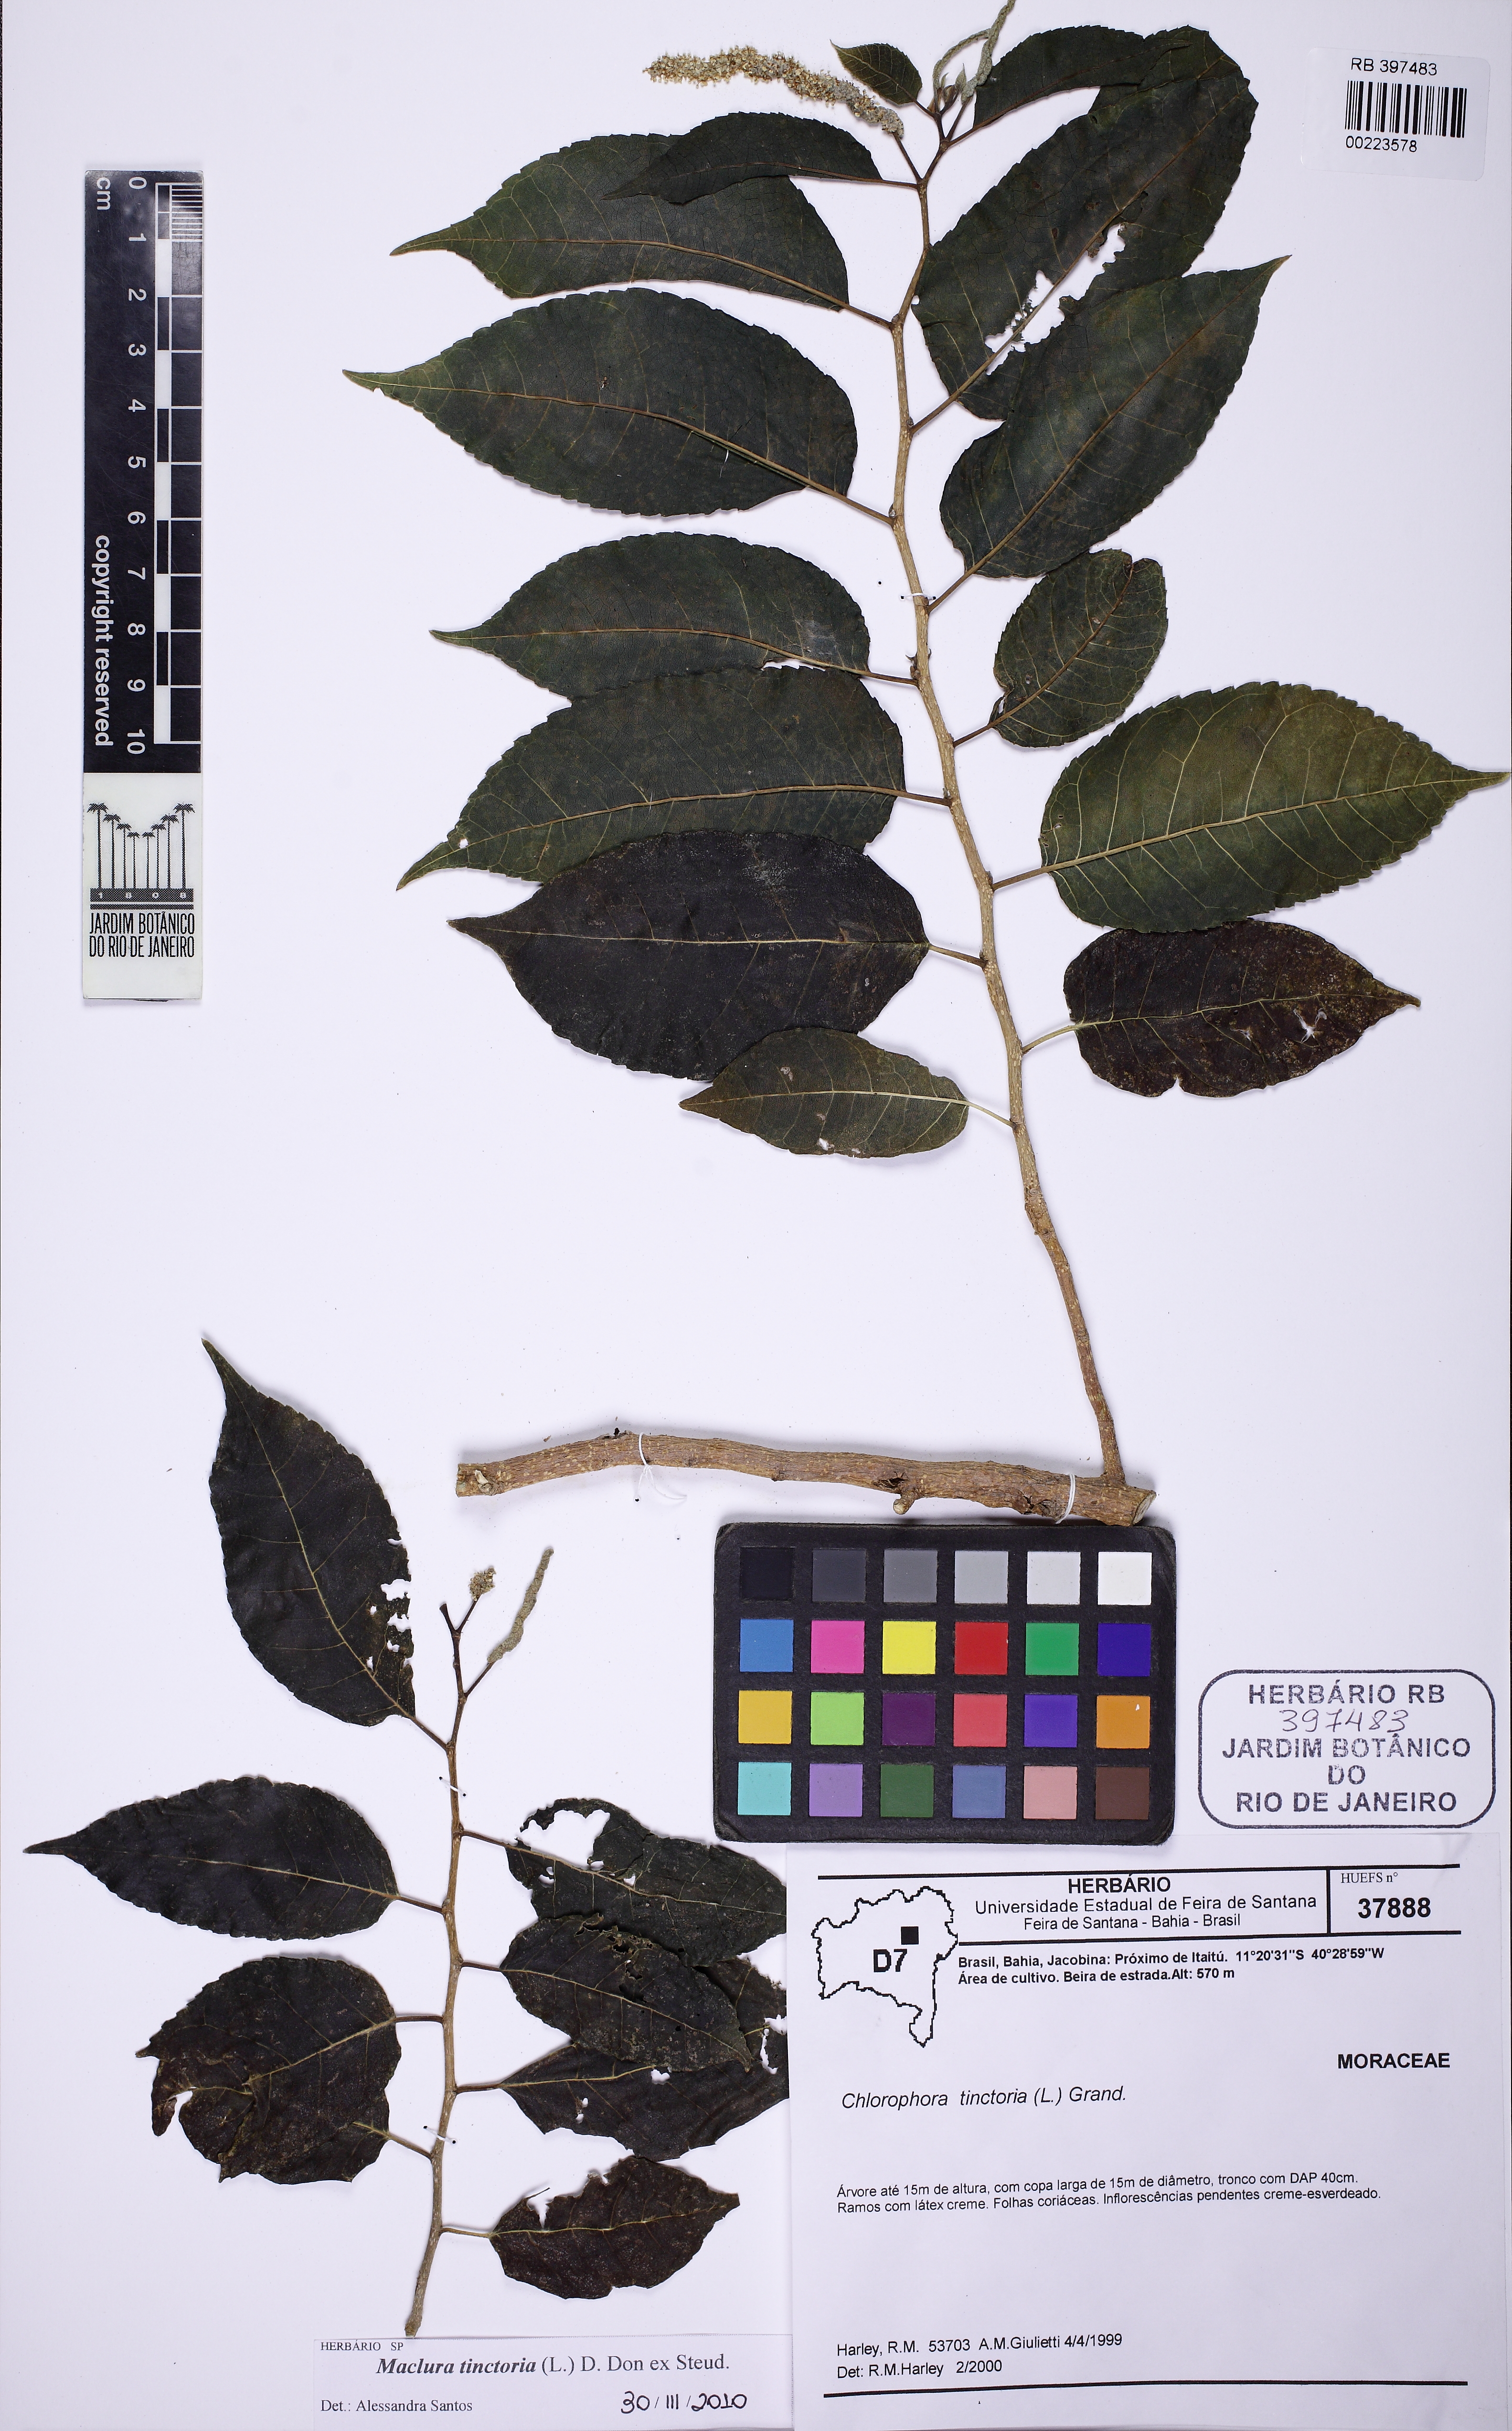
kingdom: Plantae
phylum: Tracheophyta
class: Magnoliopsida
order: Rosales
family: Moraceae
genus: Maclura
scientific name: Maclura tinctoria
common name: Old fustic
